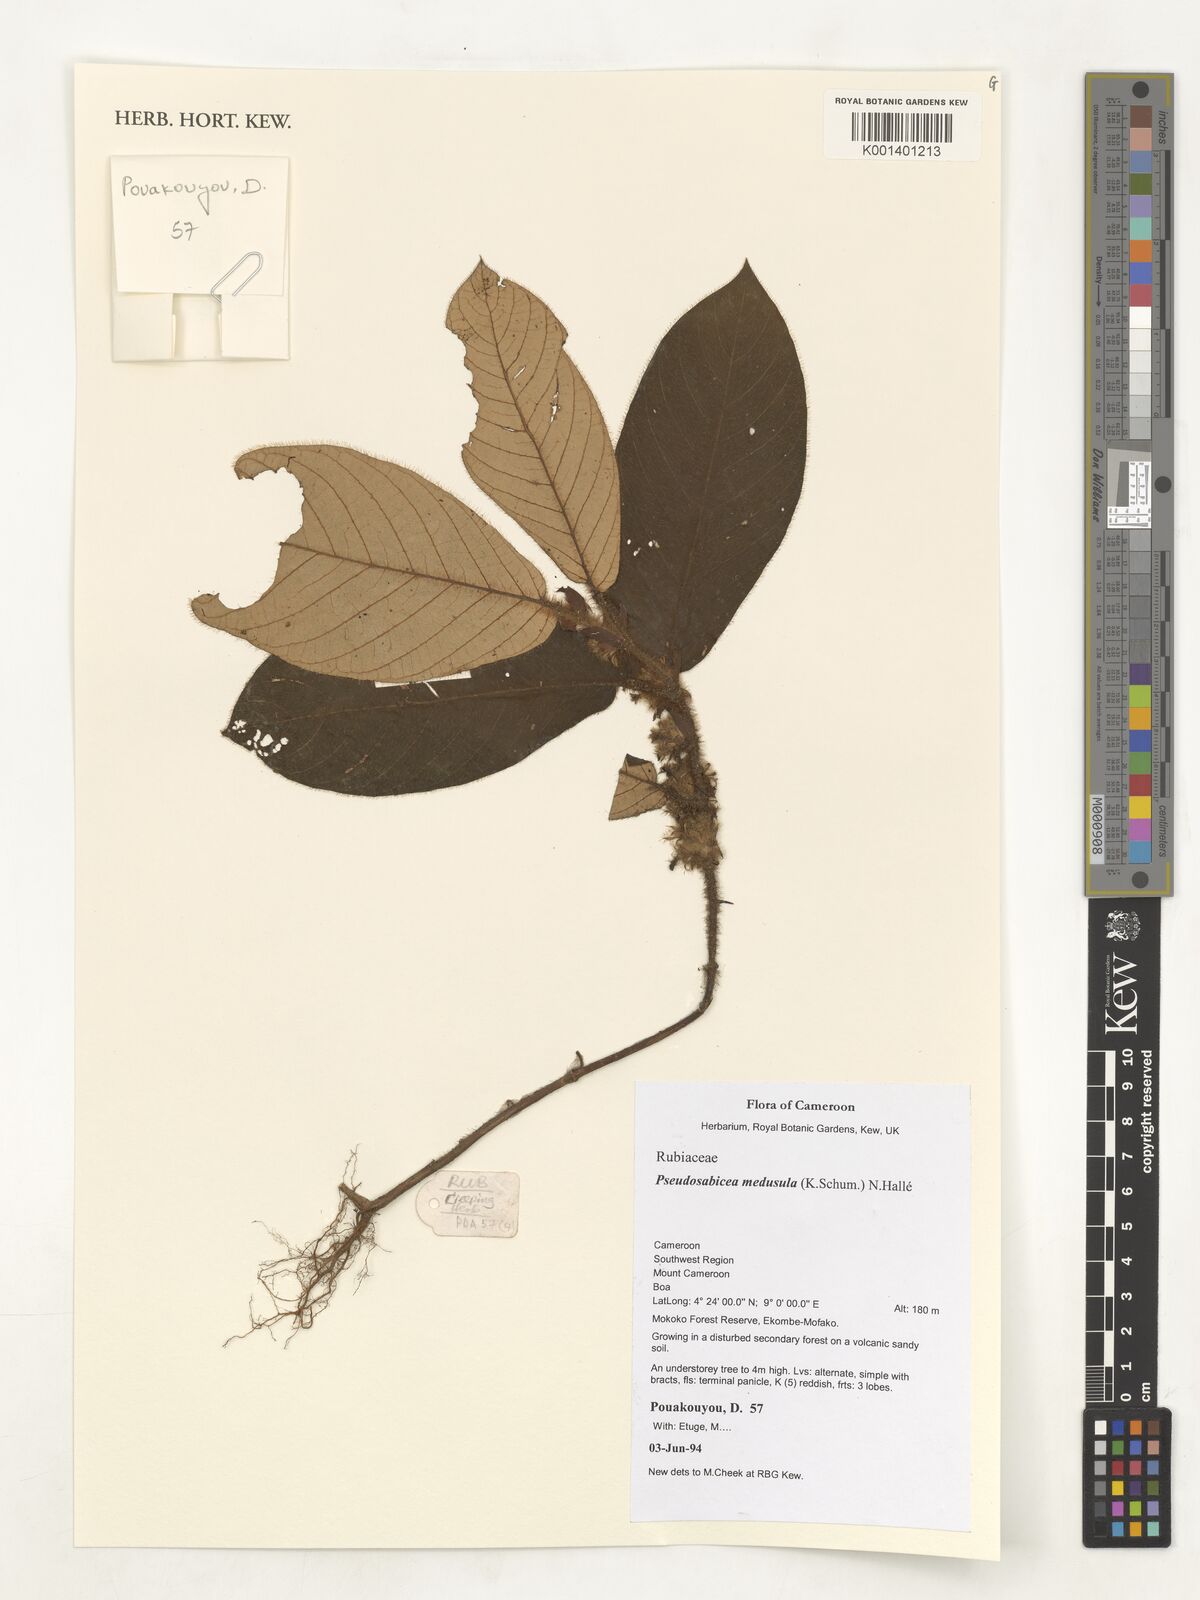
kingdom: Plantae
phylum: Tracheophyta
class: Magnoliopsida
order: Gentianales
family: Rubiaceae
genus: Sabicea
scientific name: Sabicea medusula
